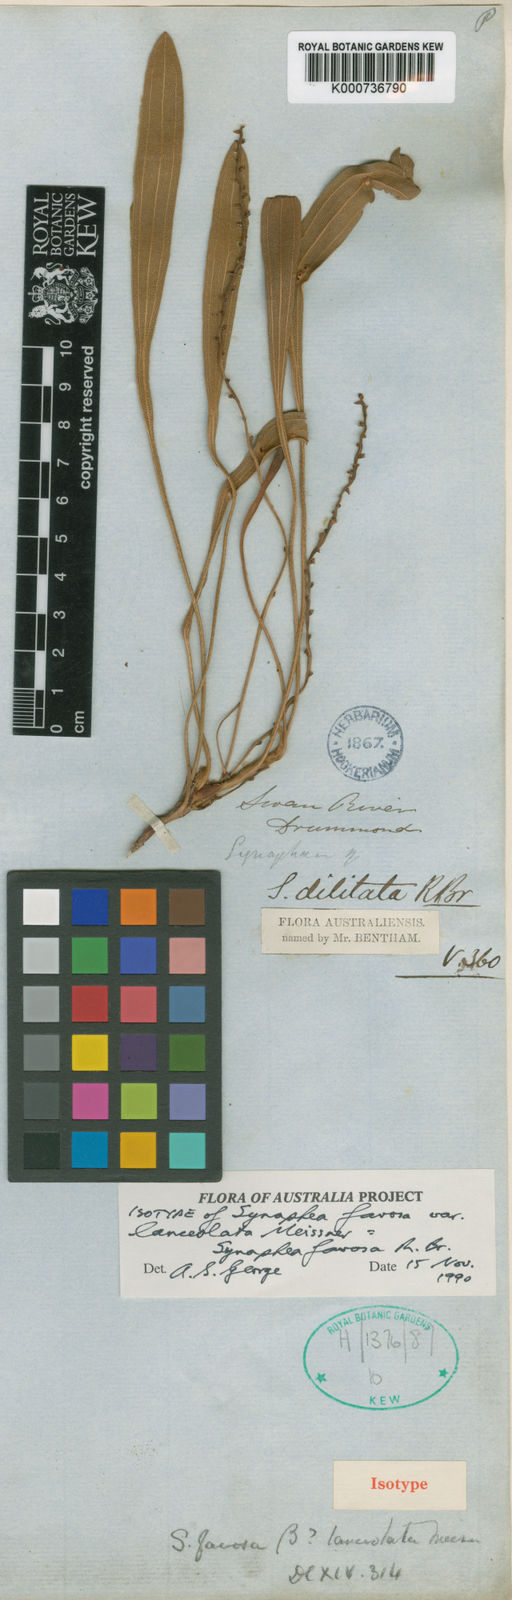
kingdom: Plantae
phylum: Tracheophyta
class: Magnoliopsida
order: Proteales
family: Proteaceae
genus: Synaphea
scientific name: Synaphea
